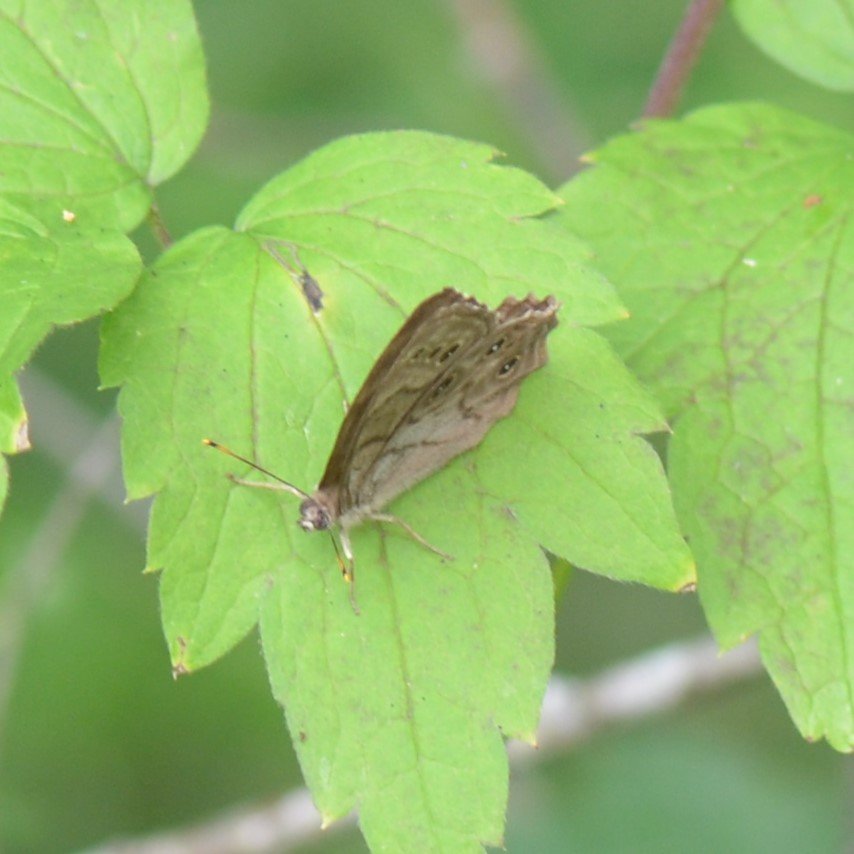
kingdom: Animalia
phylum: Arthropoda
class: Insecta
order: Lepidoptera
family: Nymphalidae
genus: Lethe
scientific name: Lethe anthedon
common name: Northern Pearly-Eye
